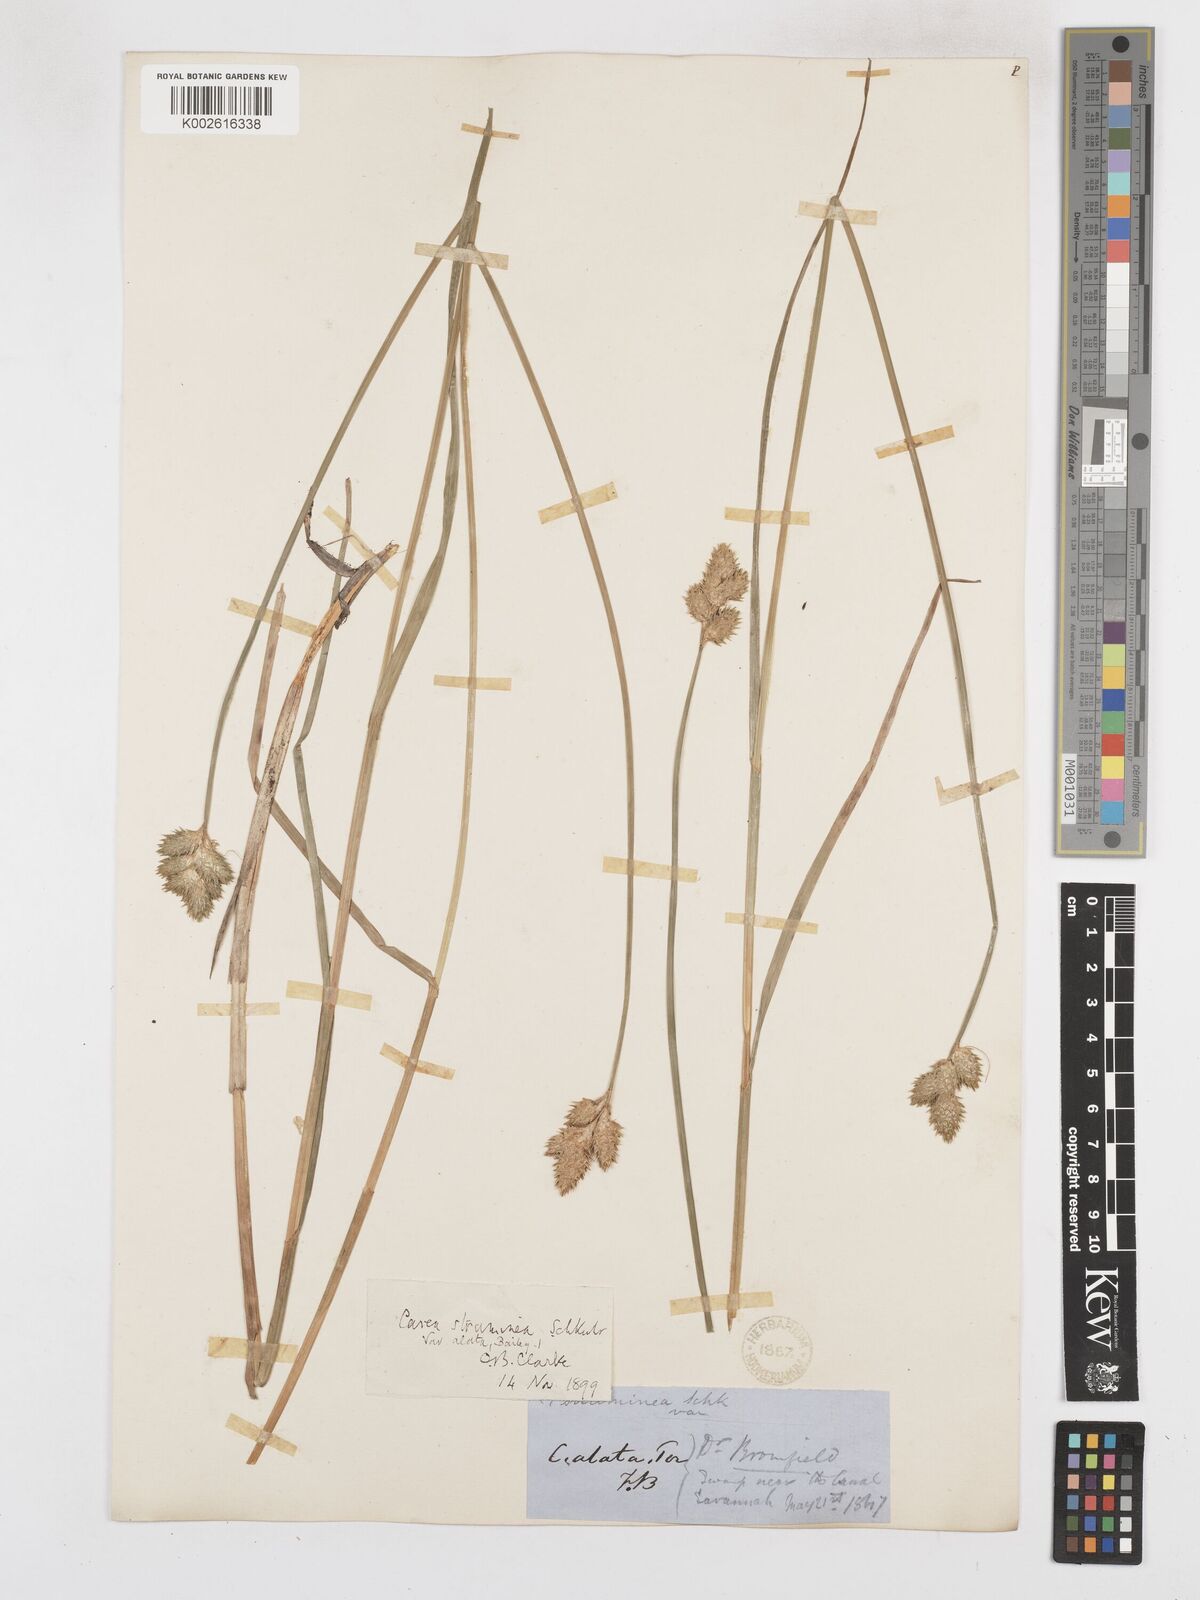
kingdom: Plantae
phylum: Tracheophyta
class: Liliopsida
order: Poales
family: Cyperaceae
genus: Carex
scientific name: Carex alata
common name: Broad-winged sedge
